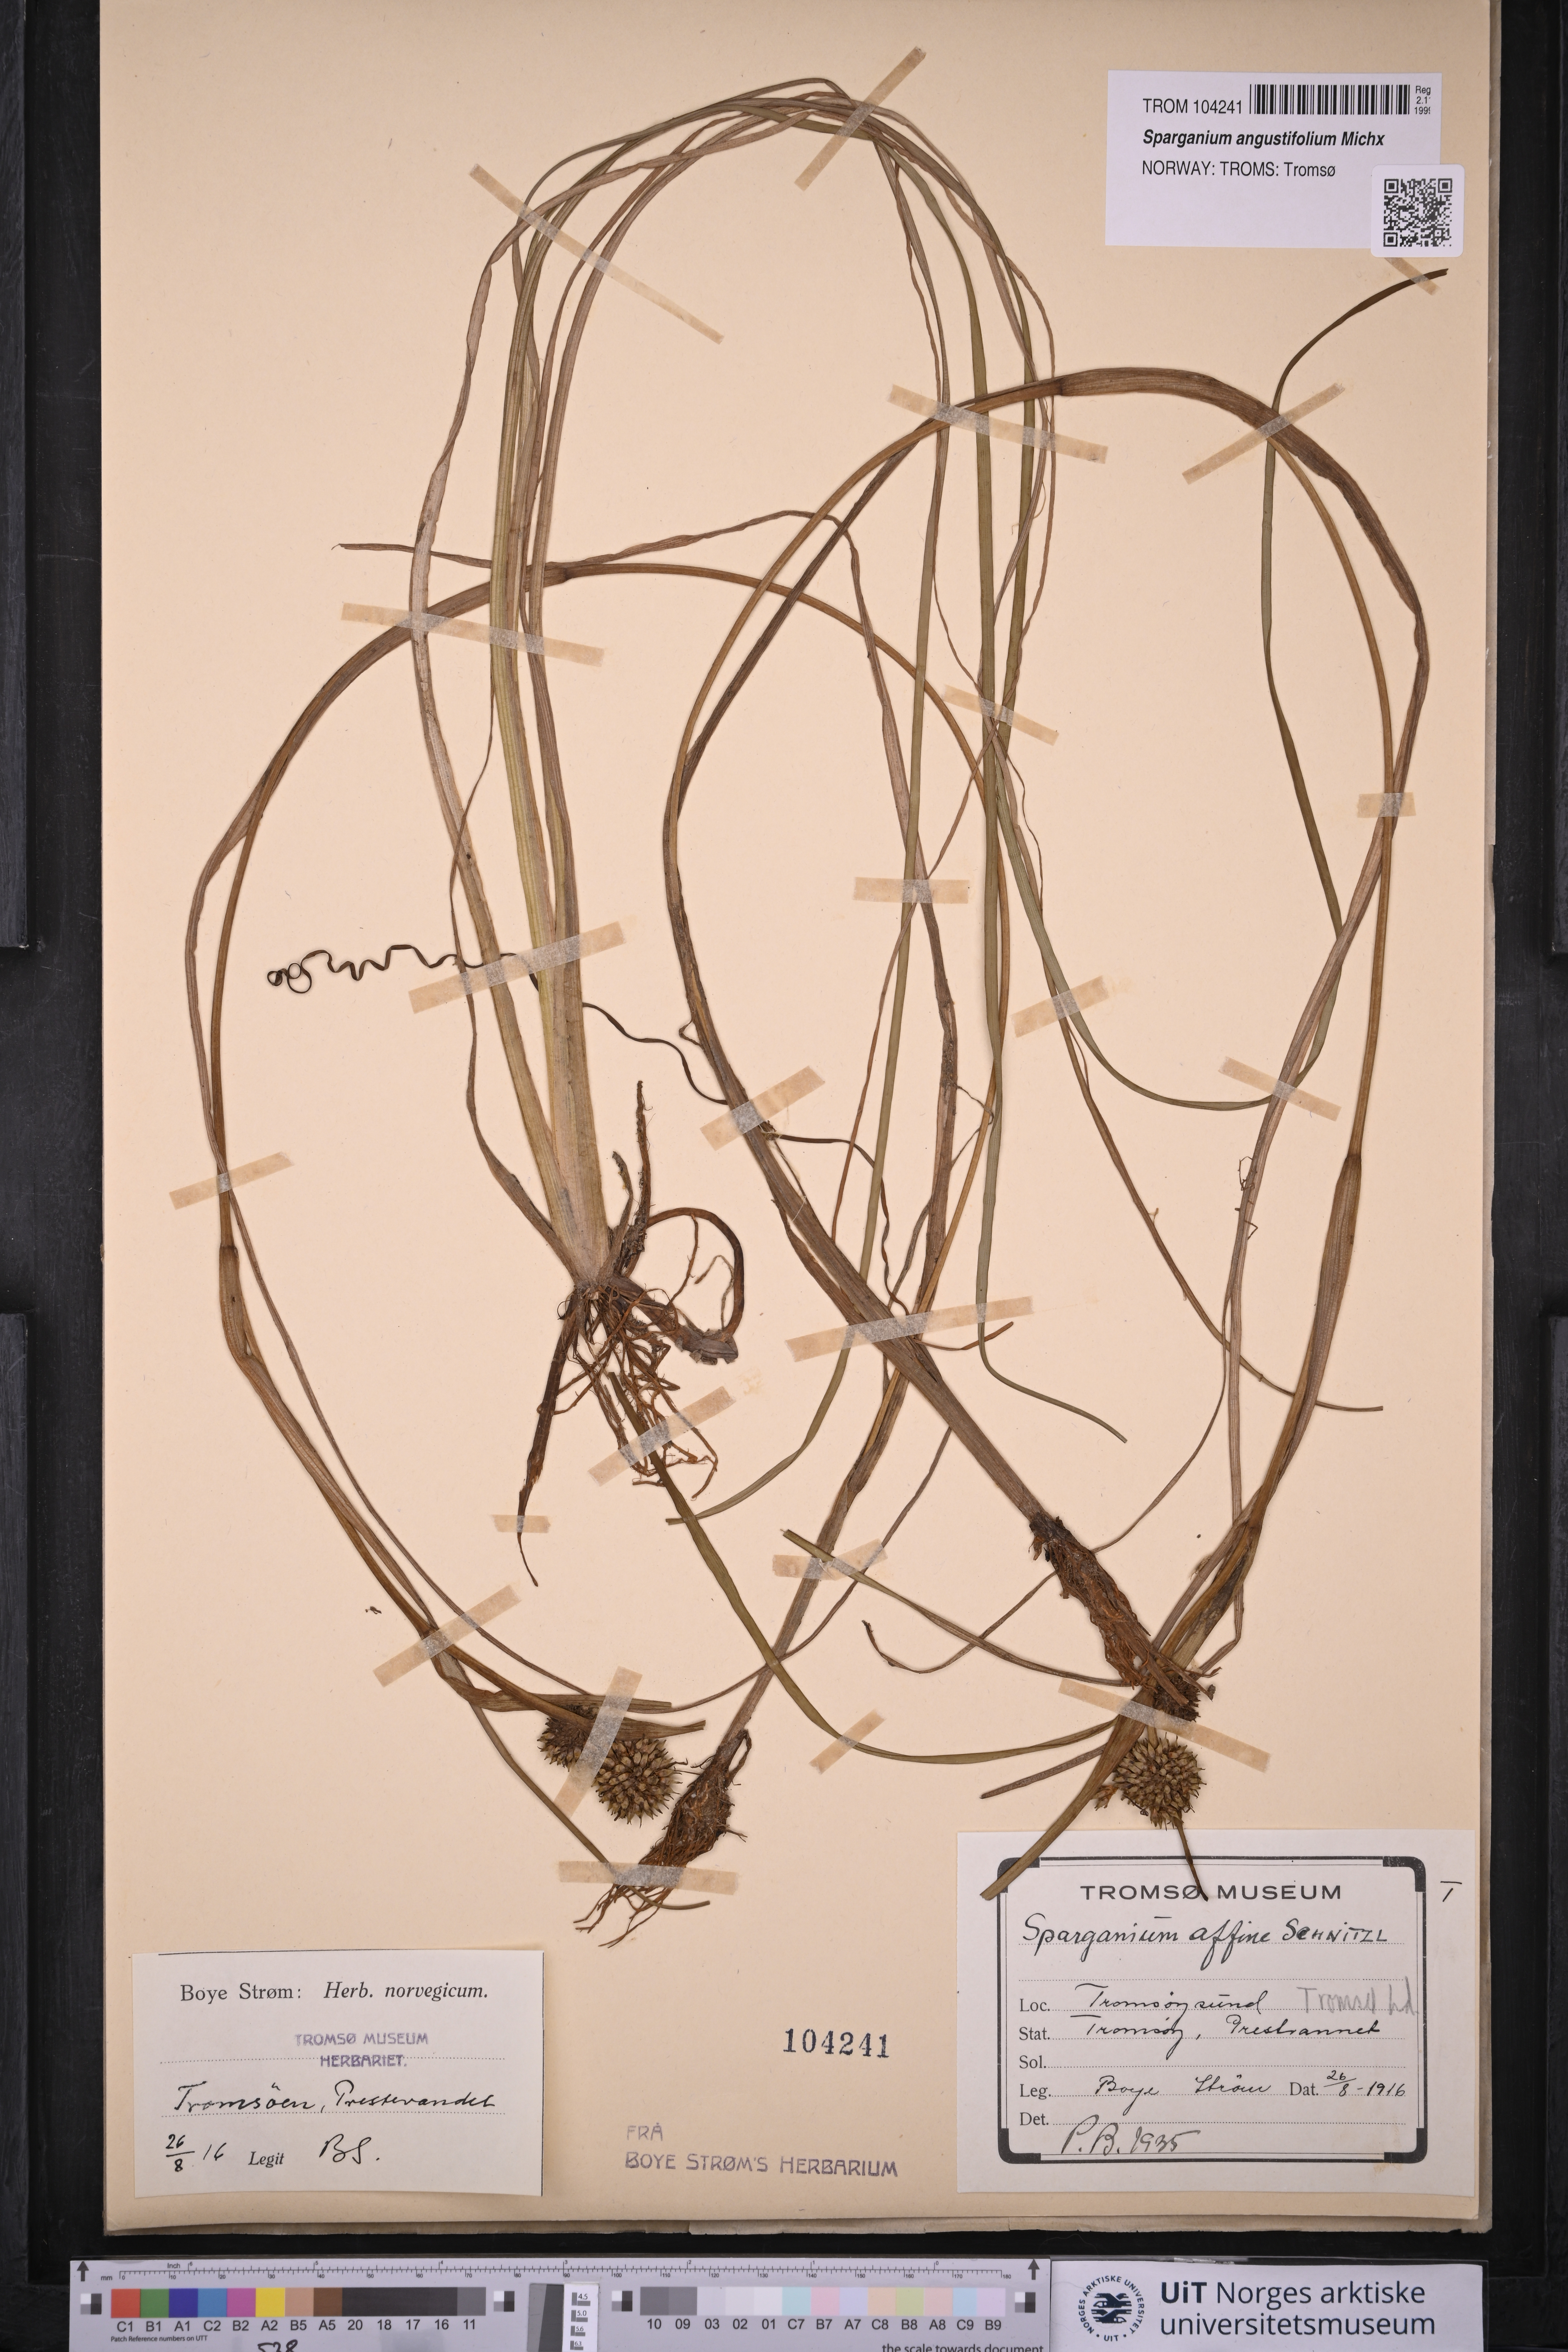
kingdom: Plantae
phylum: Tracheophyta
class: Liliopsida
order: Poales
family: Typhaceae
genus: Sparganium
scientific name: Sparganium angustifolium
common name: Floating bur-reed
